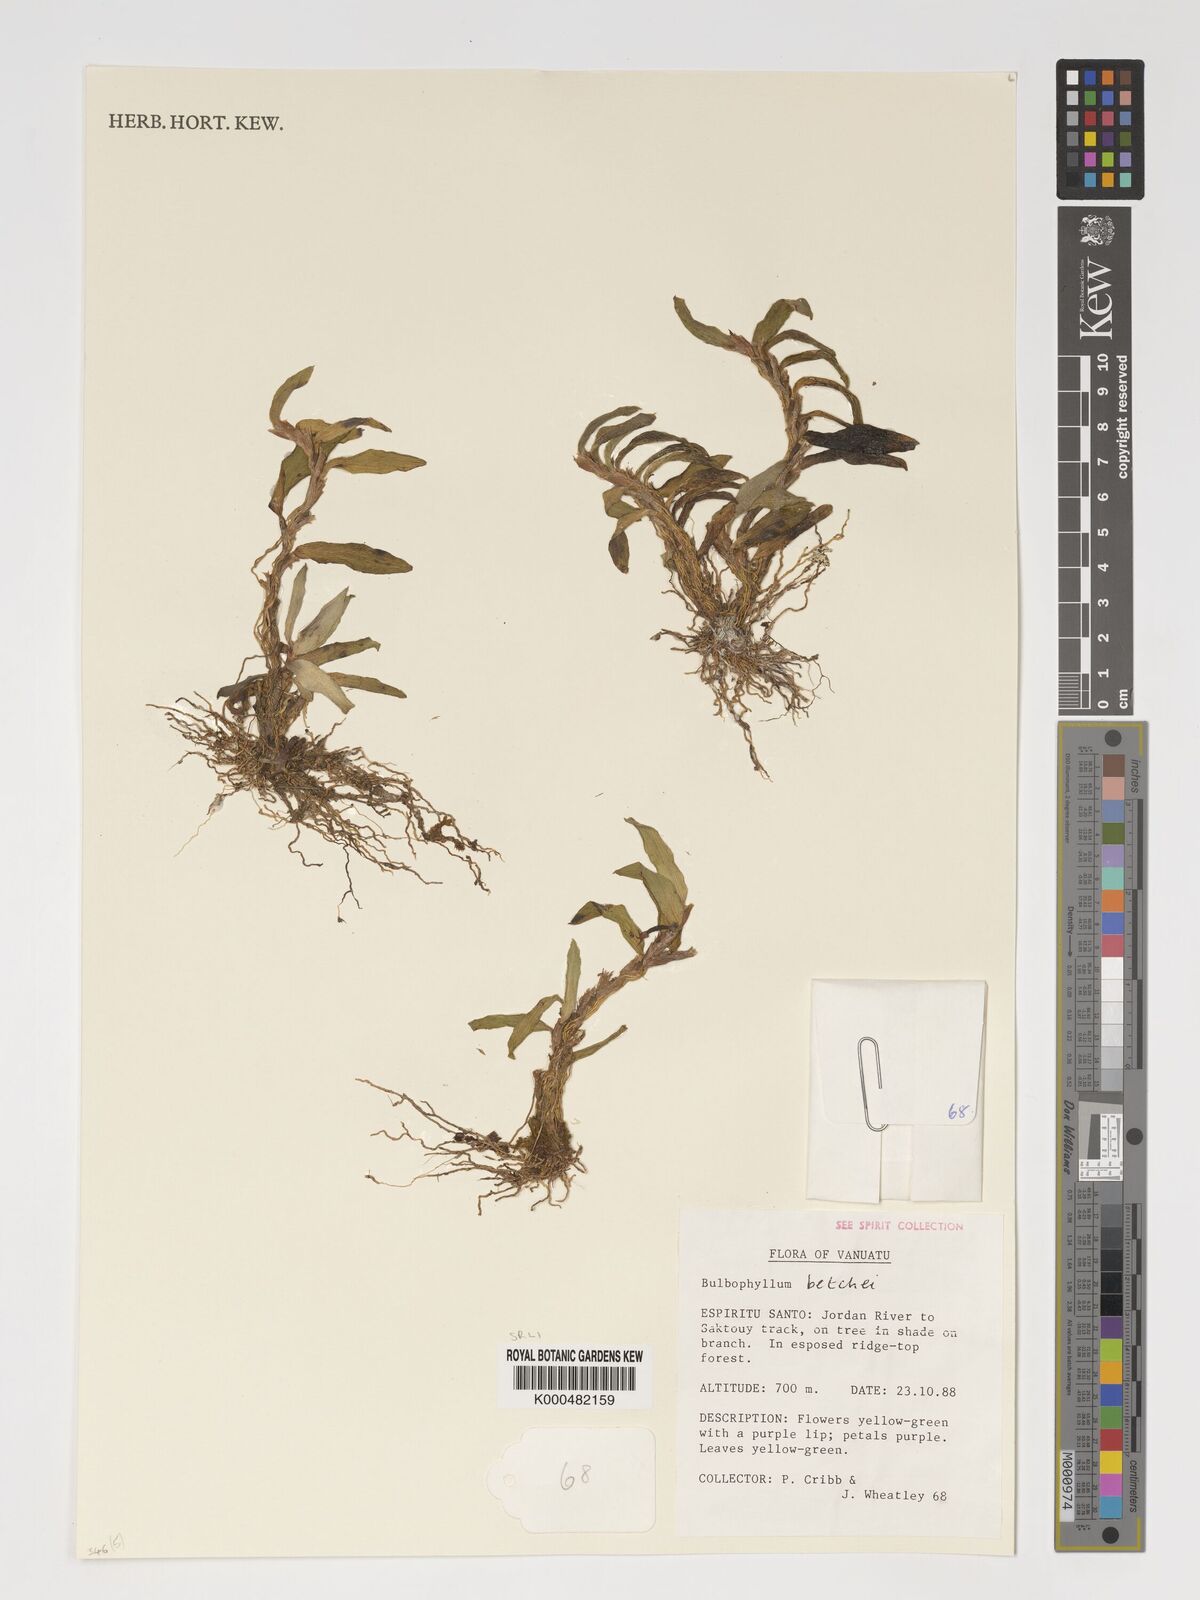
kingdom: Plantae
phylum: Tracheophyta
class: Liliopsida
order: Asparagales
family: Orchidaceae
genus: Bulbophyllum
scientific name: Bulbophyllum betchei
